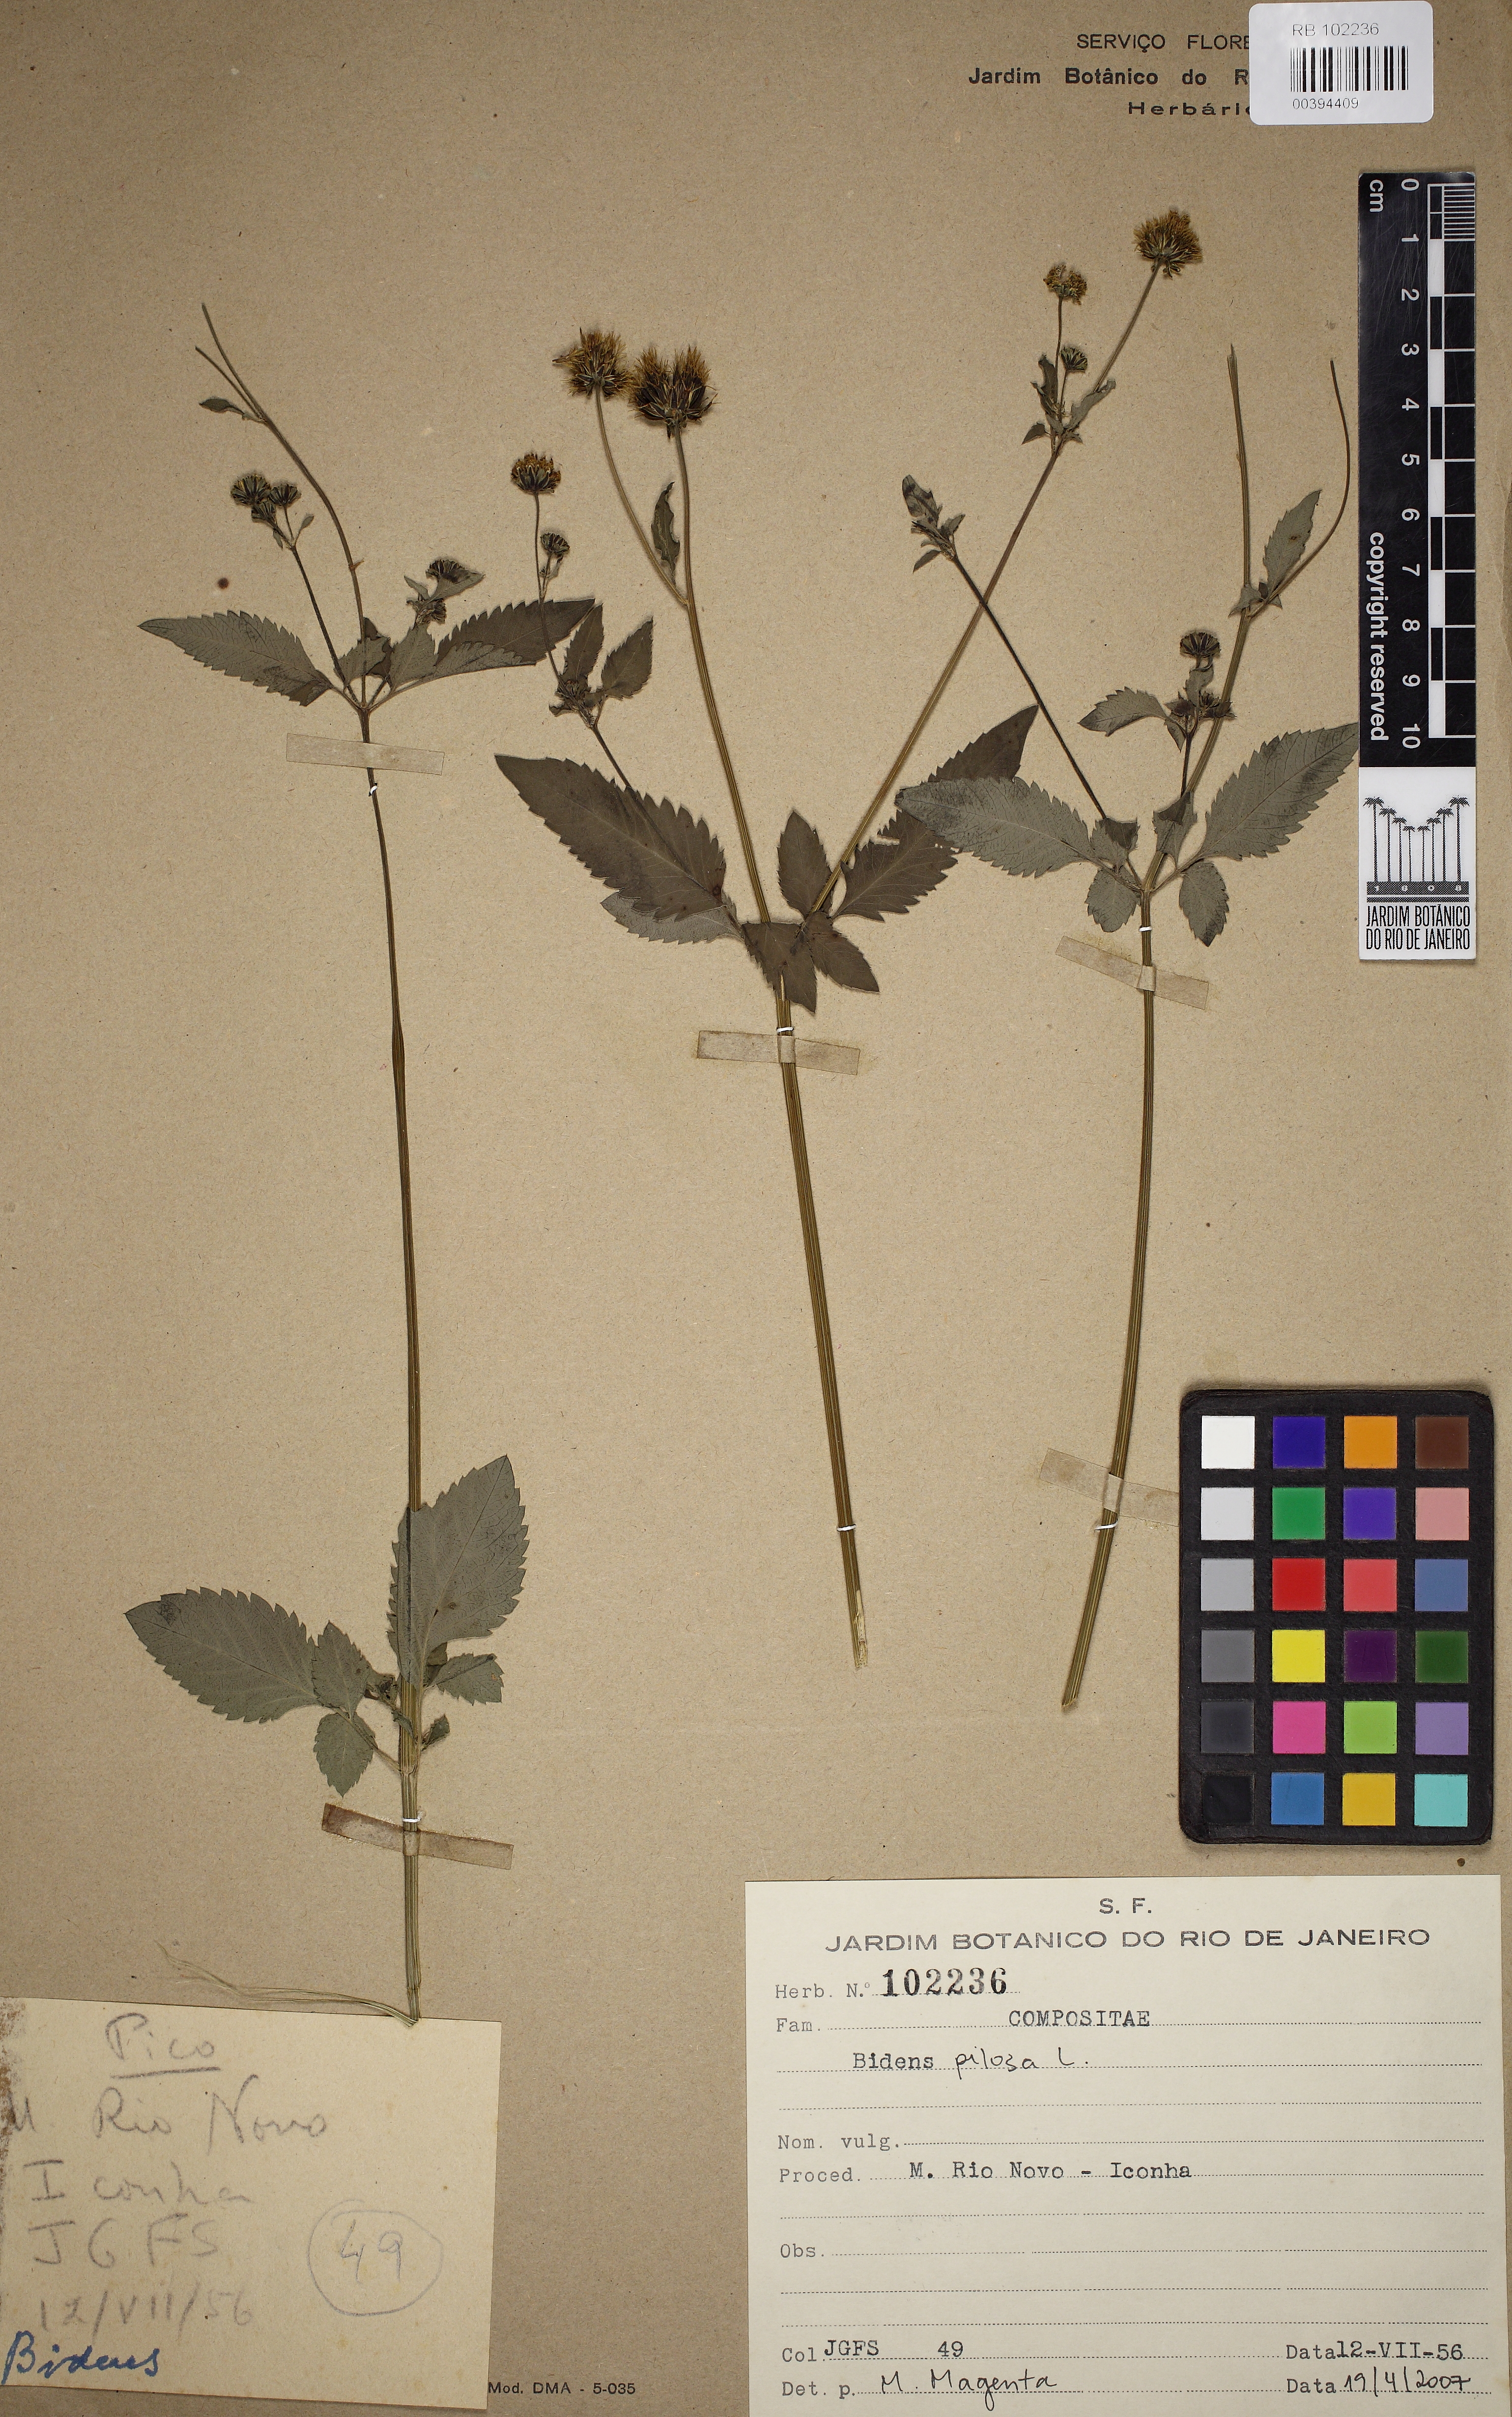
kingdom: Plantae
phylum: Tracheophyta
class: Magnoliopsida
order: Asterales
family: Asteraceae
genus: Bidens
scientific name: Bidens pilosa
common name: Black-jack
